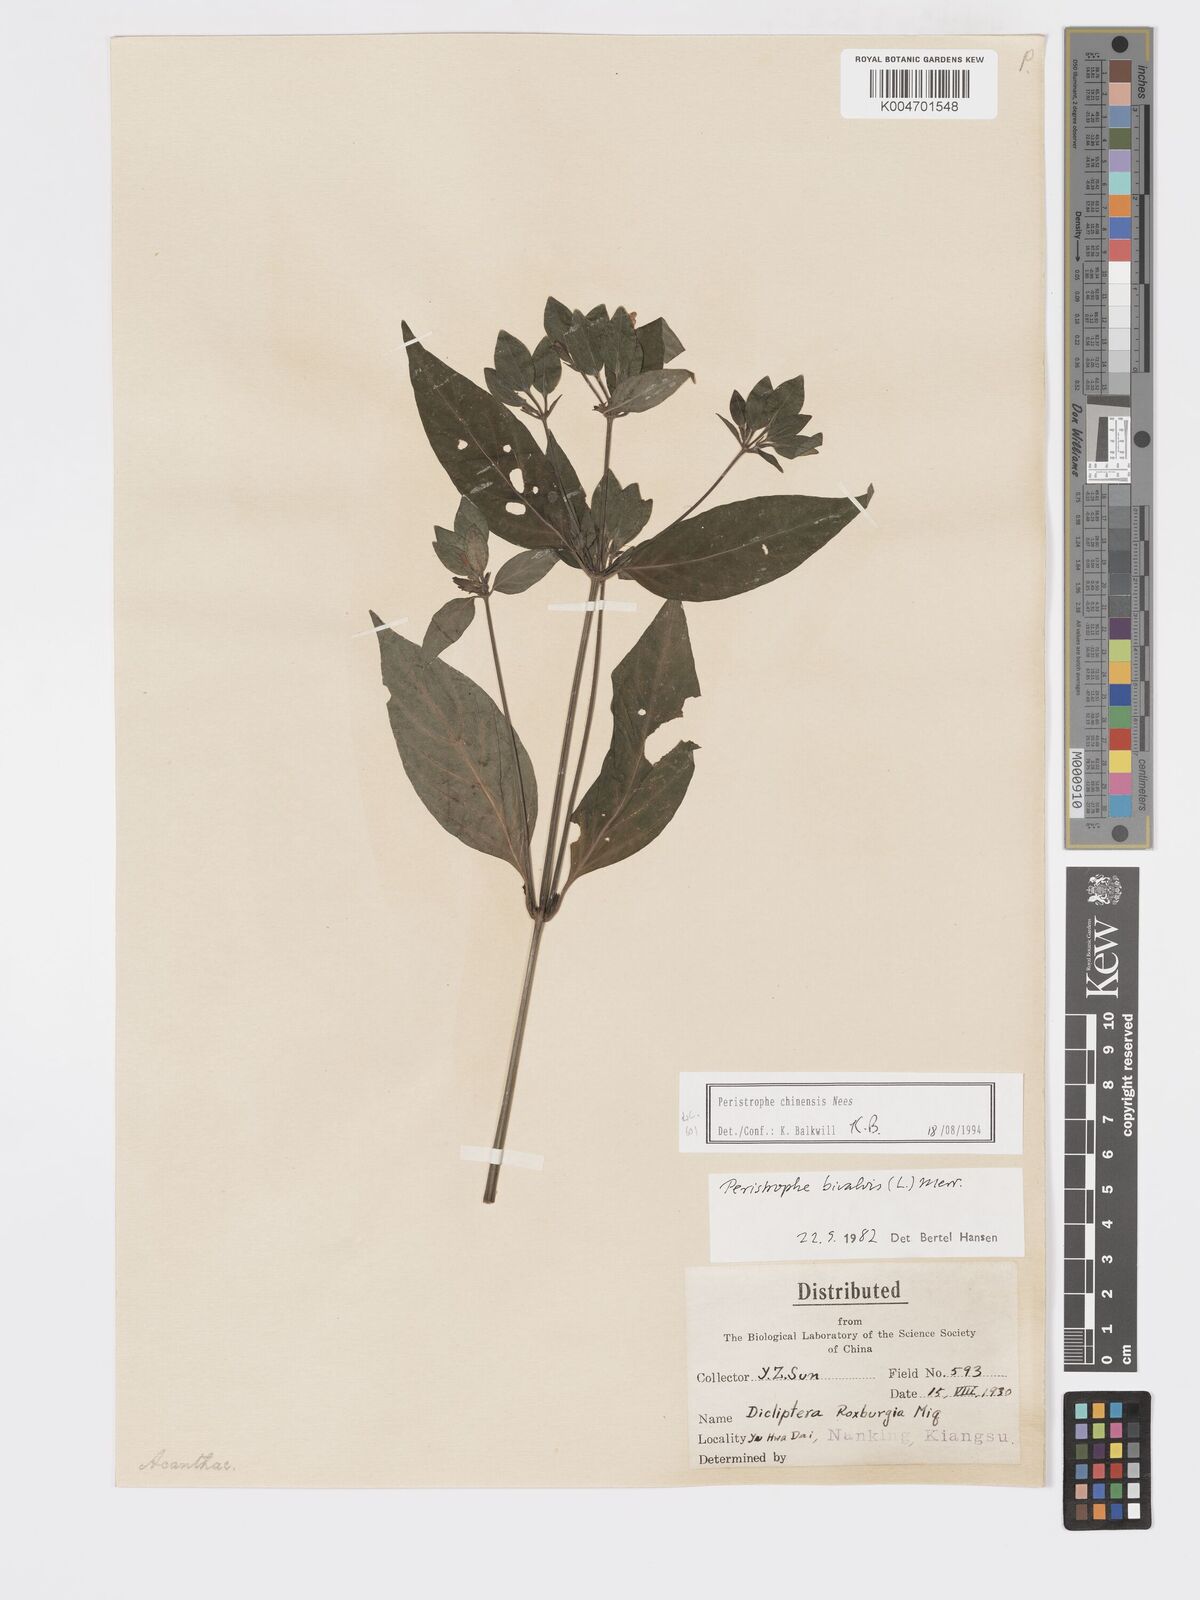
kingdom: Plantae
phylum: Tracheophyta
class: Magnoliopsida
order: Lamiales
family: Acanthaceae
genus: Dicliptera
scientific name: Dicliptera chinensis
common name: Chinese foldwing
